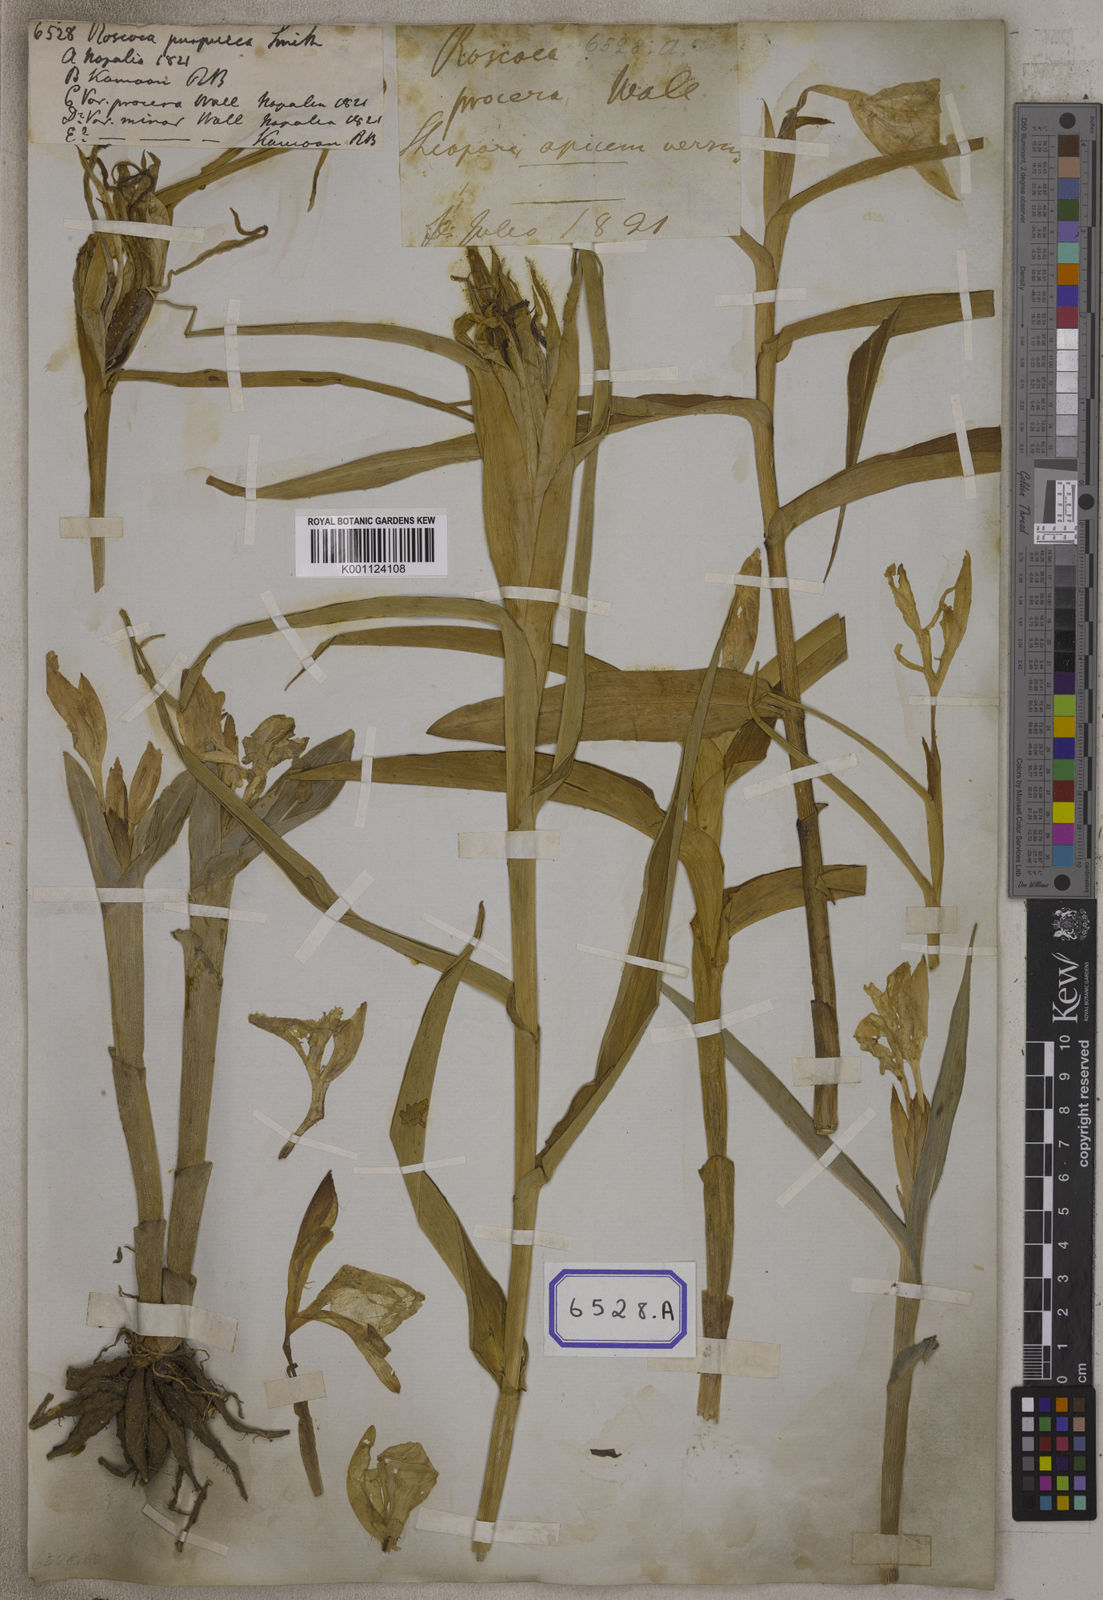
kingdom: Plantae
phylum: Tracheophyta
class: Liliopsida
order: Zingiberales
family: Zingiberaceae
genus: Roscoea
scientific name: Roscoea purpurea
